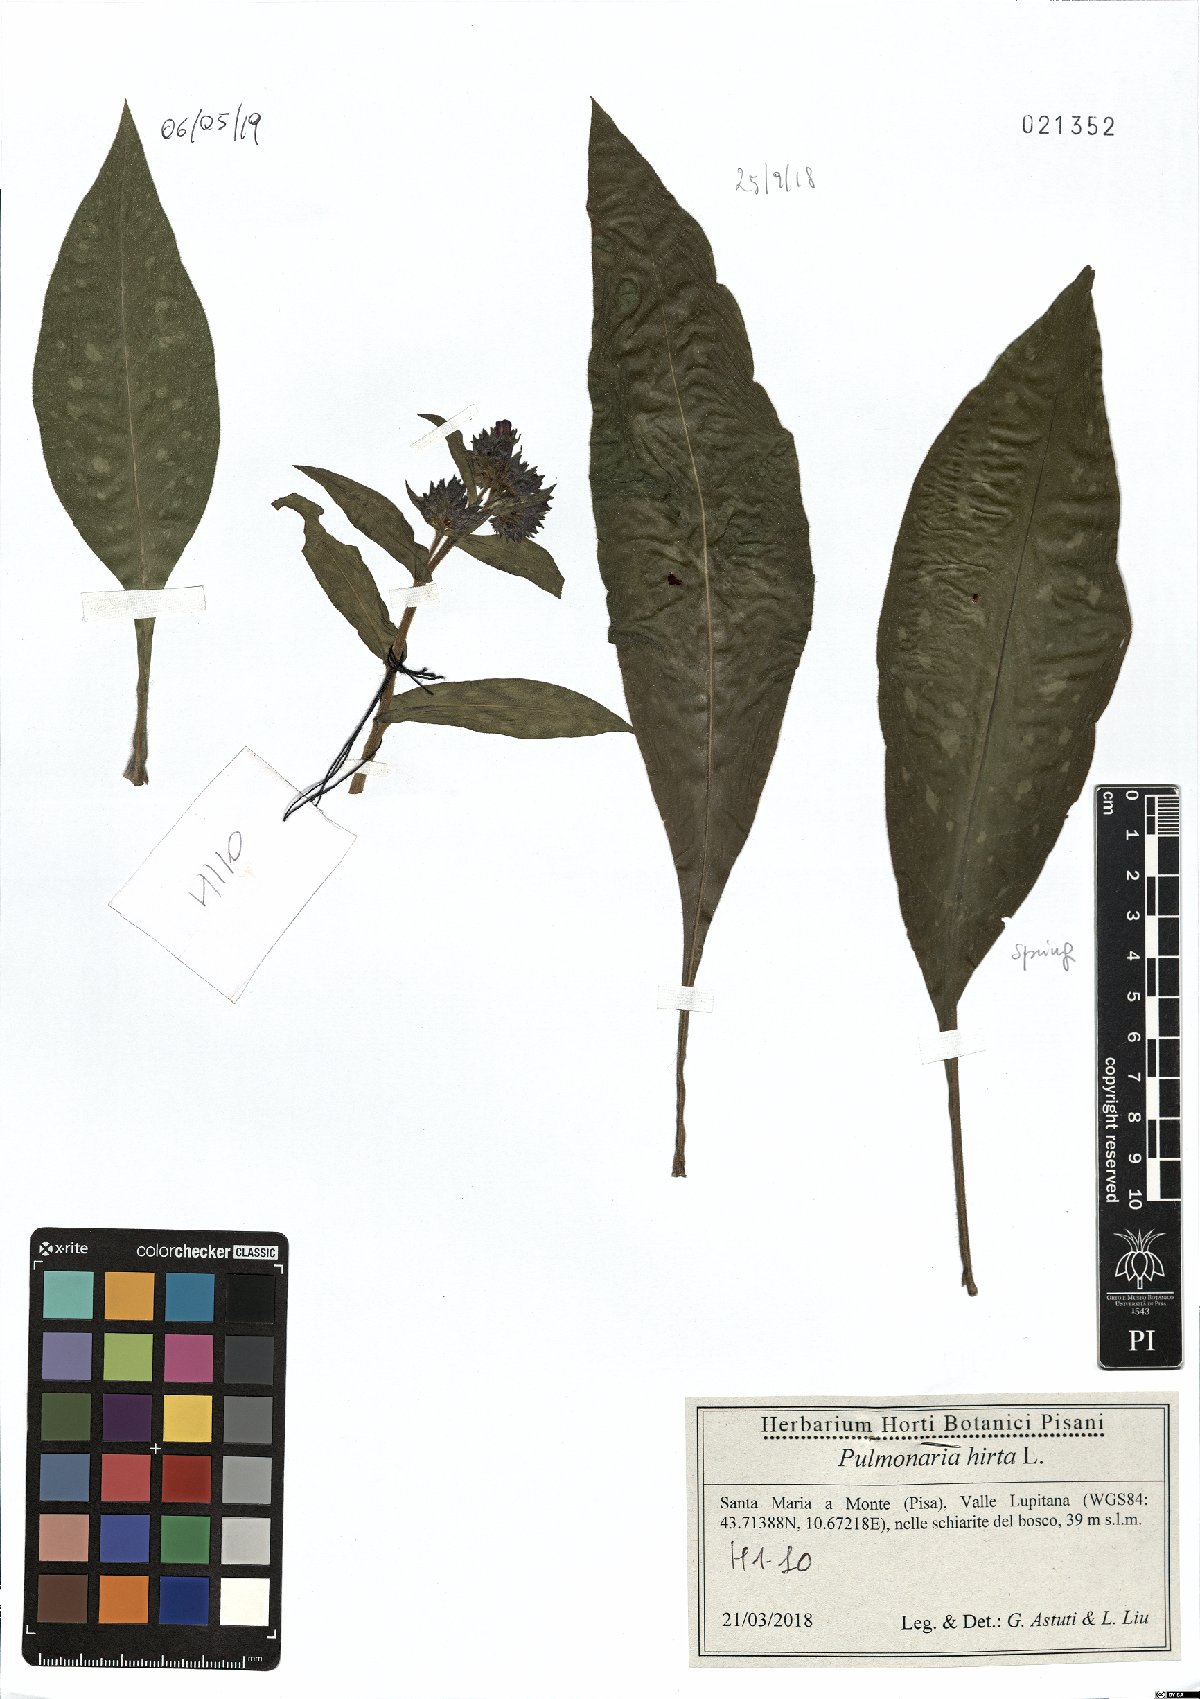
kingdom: Plantae
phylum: Tracheophyta
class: Magnoliopsida
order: Boraginales
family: Boraginaceae
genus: Pulmonaria
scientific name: Pulmonaria hirta
